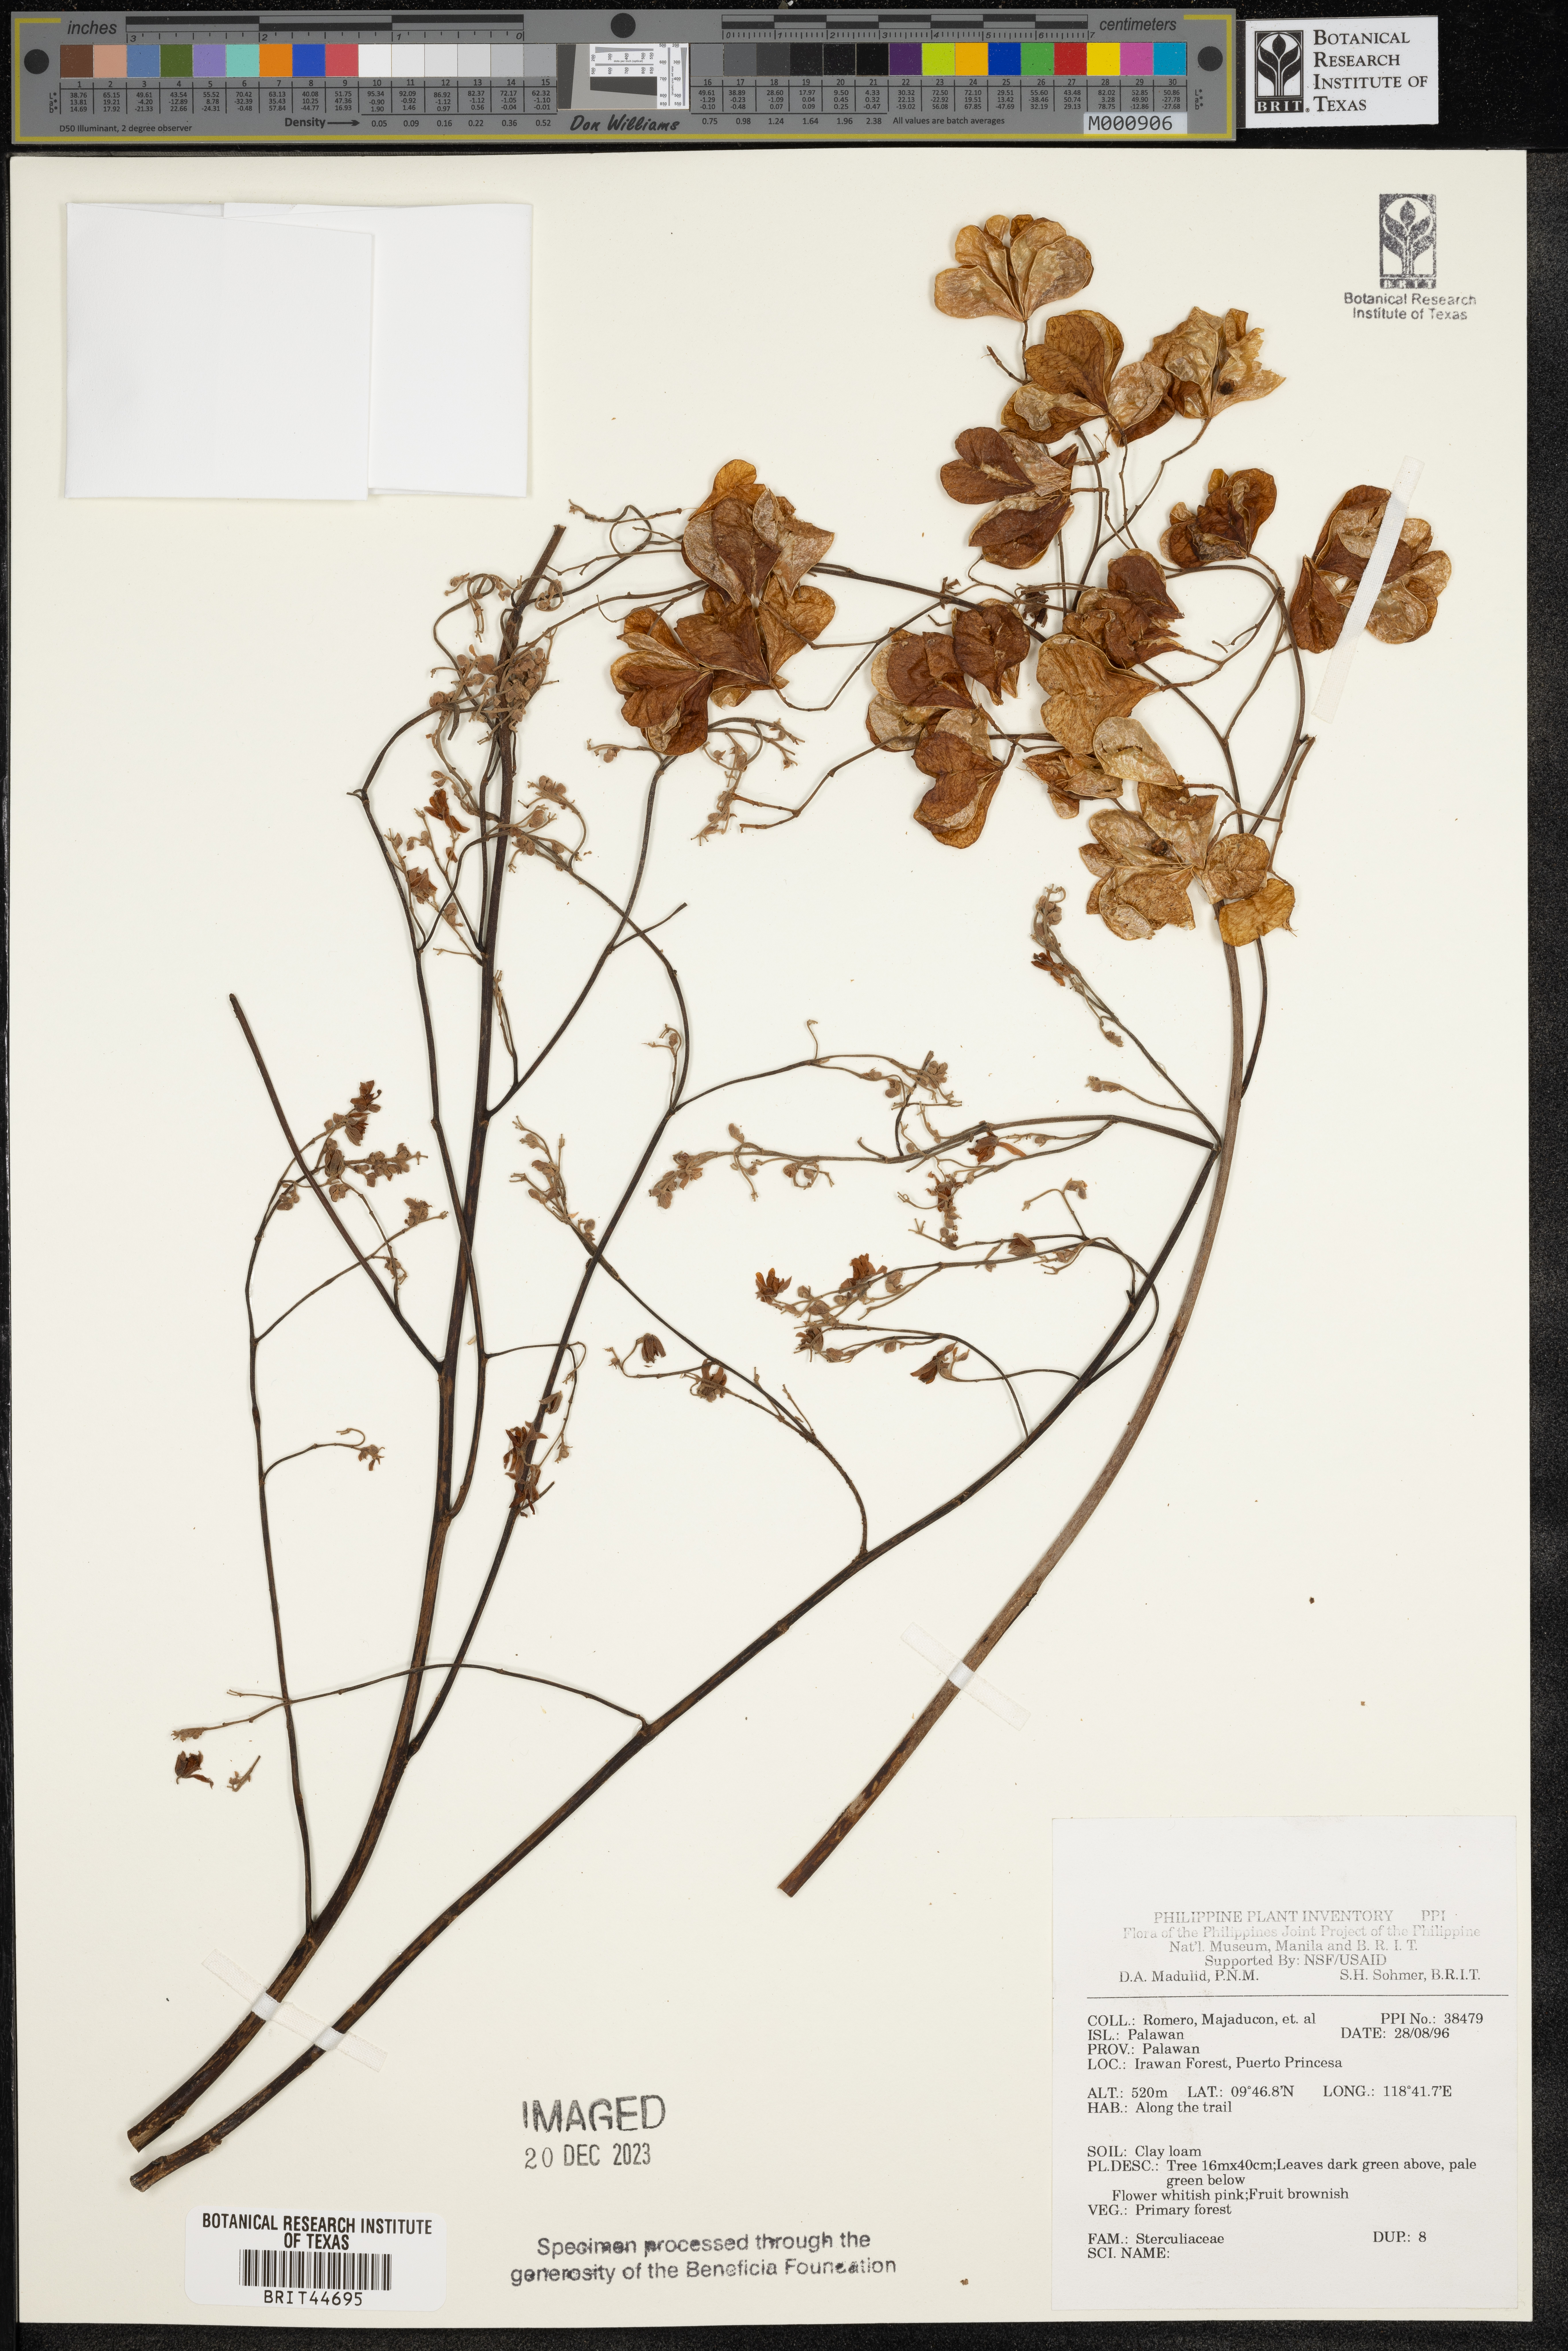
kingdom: Plantae
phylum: Tracheophyta
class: Magnoliopsida
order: Malvales
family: Sterculiaceae
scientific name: Sterculiaceae
